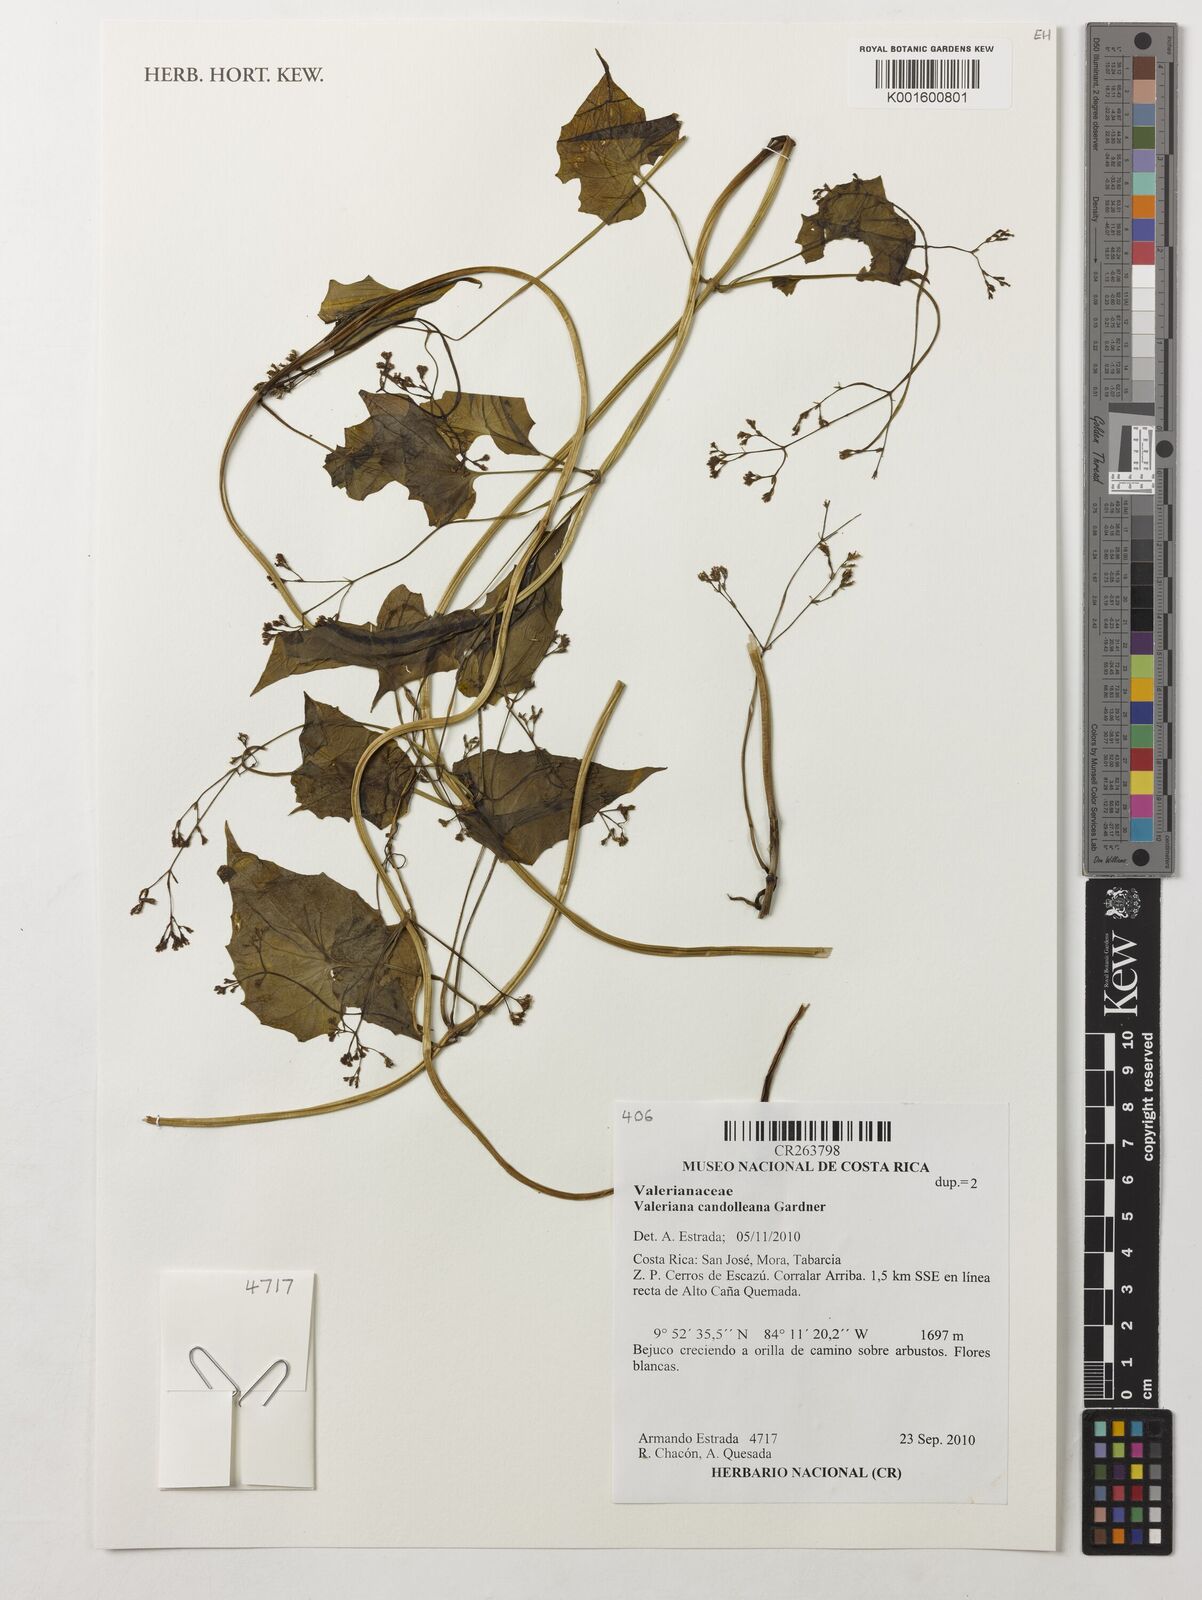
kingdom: Plantae
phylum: Tracheophyta
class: Magnoliopsida
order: Dipsacales
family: Caprifoliaceae
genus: Valeriana
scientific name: Valeriana candolleana
